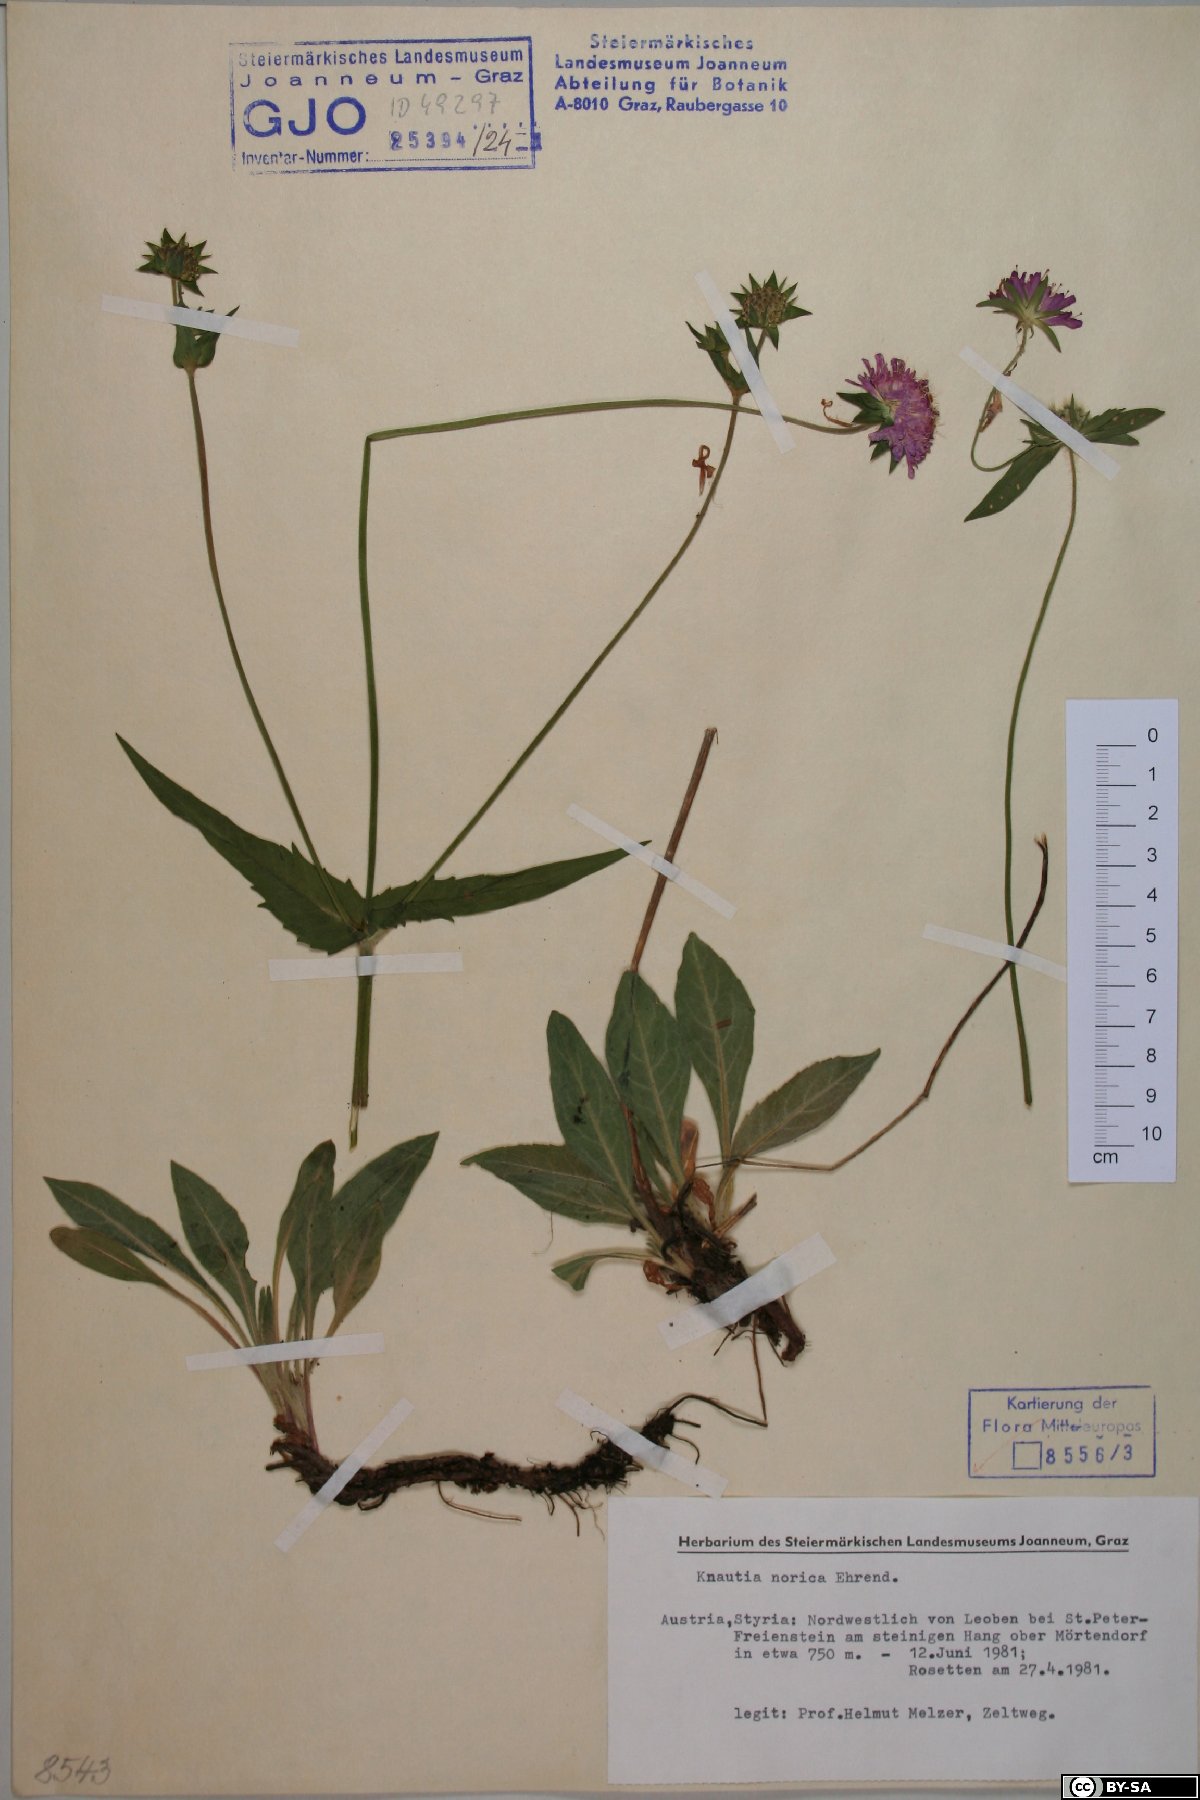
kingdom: Plantae
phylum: Tracheophyta
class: Magnoliopsida
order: Dipsacales
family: Caprifoliaceae
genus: Knautia
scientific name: Knautia norica
